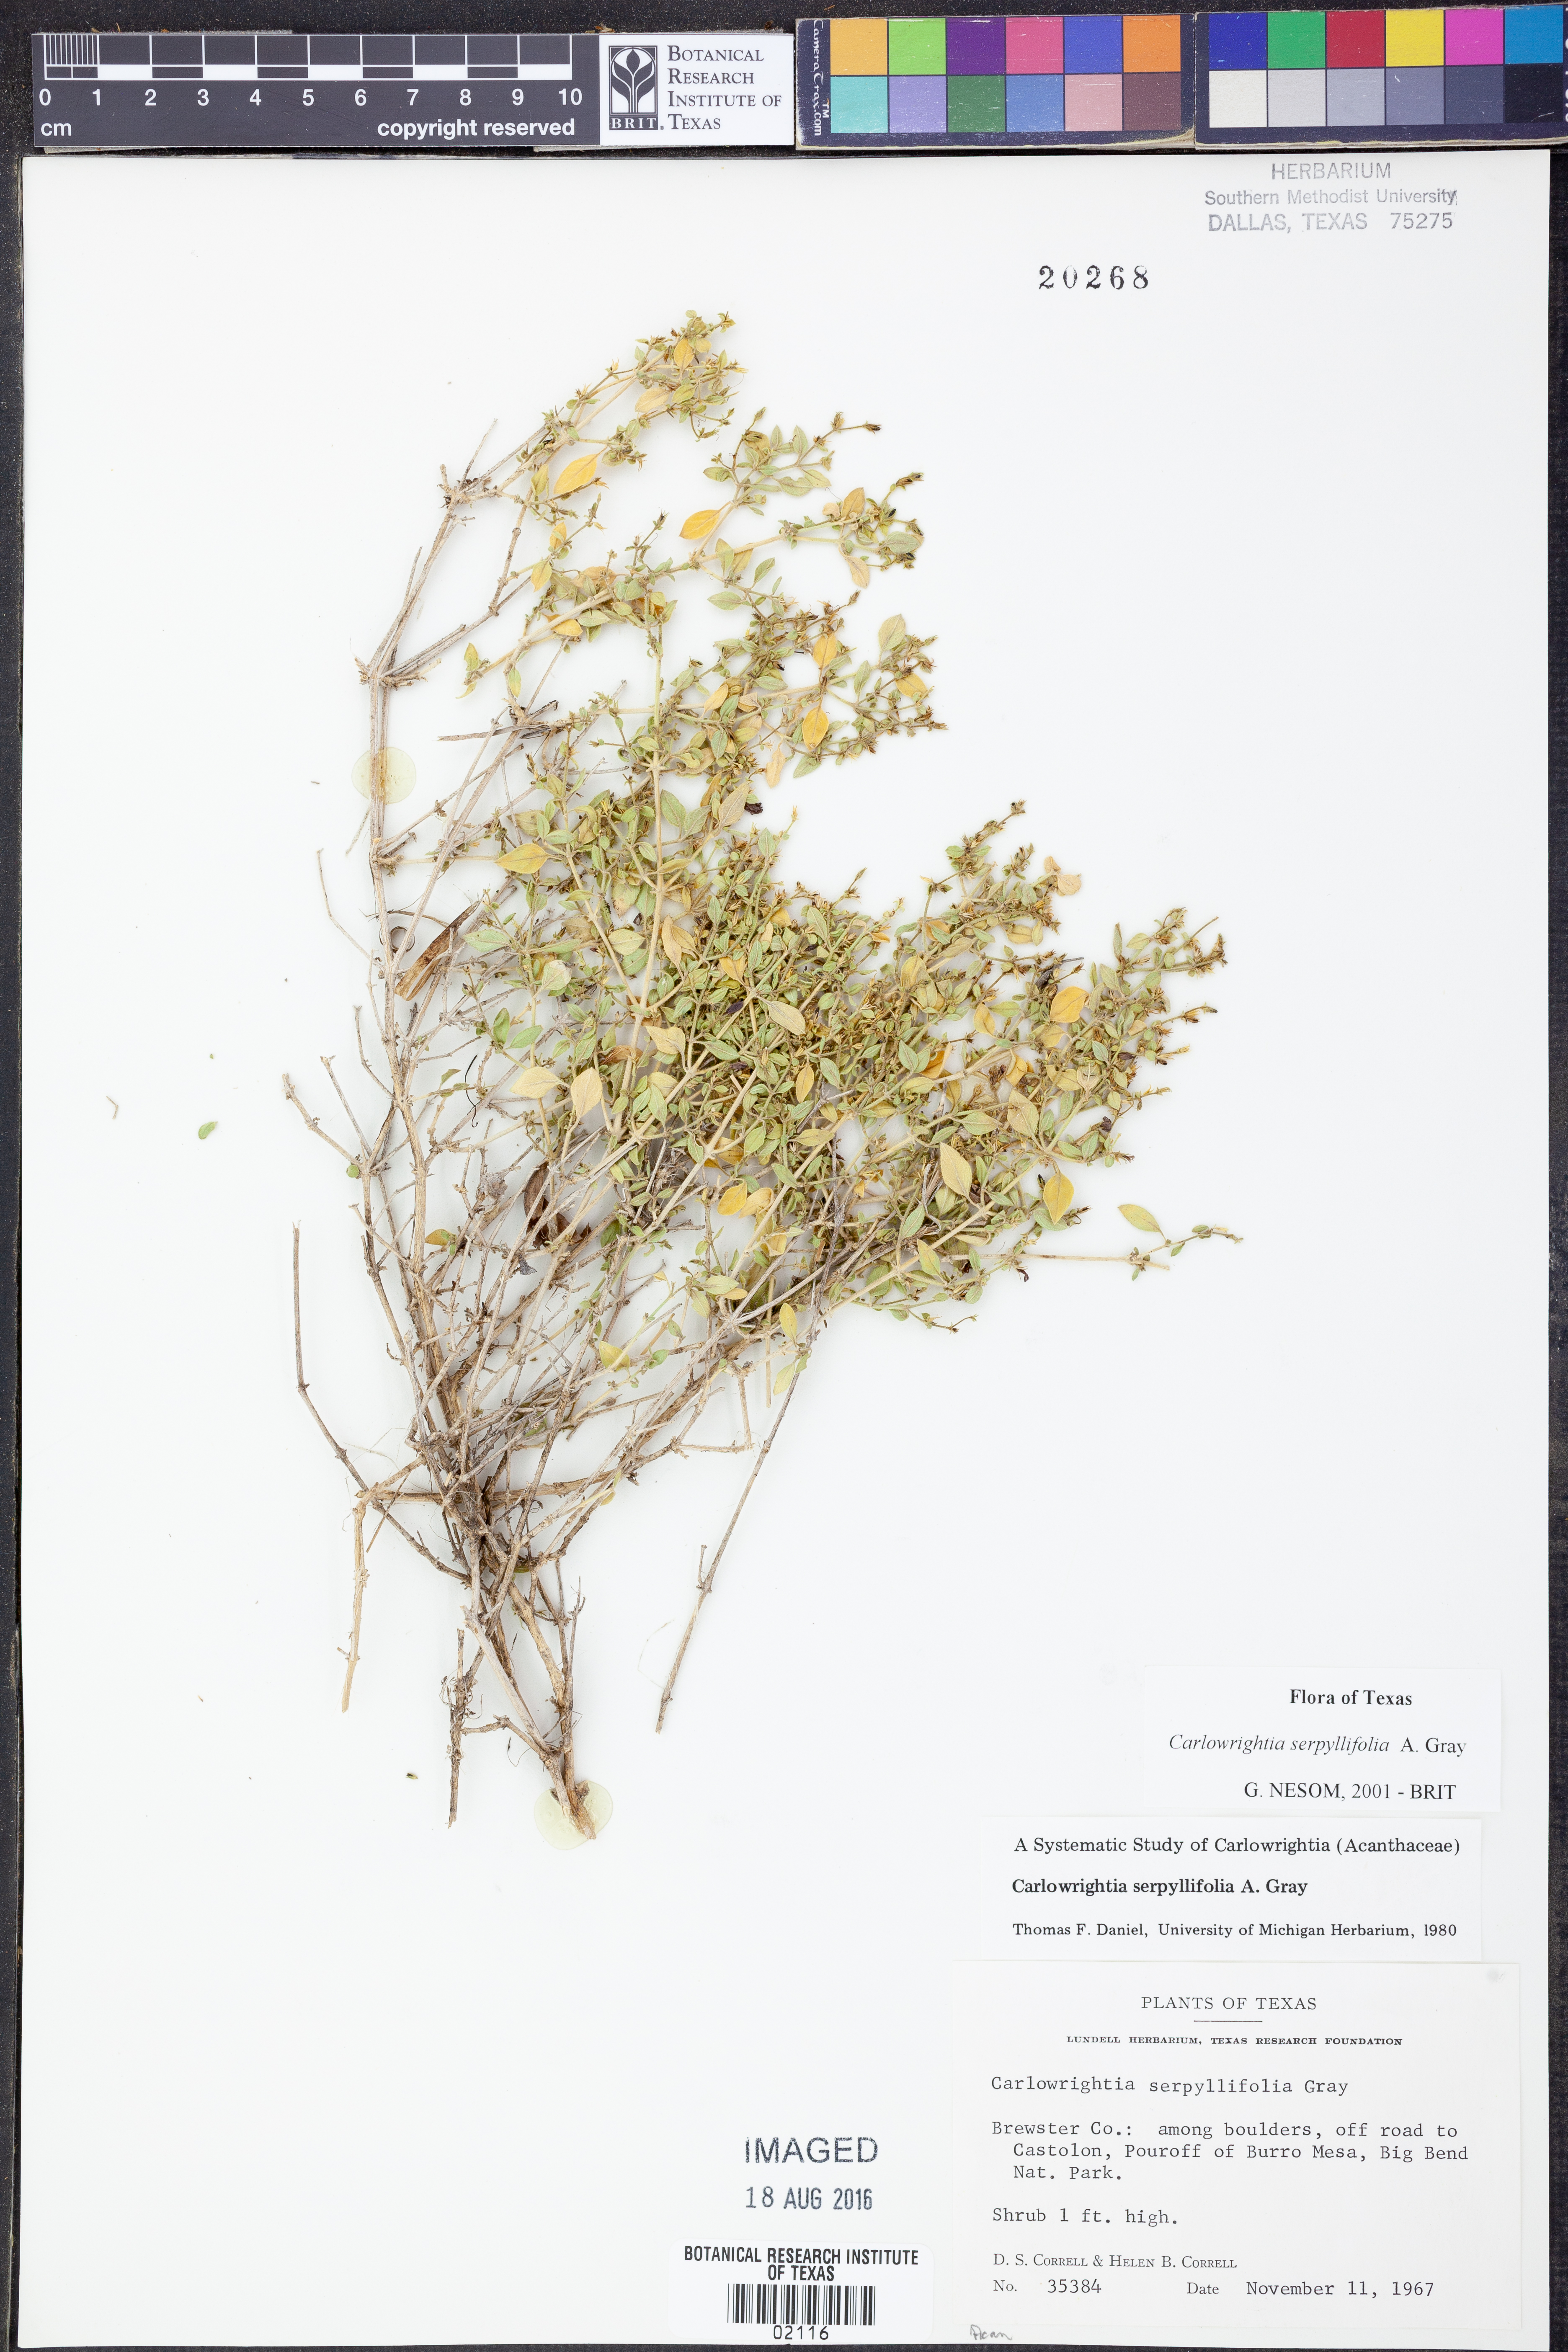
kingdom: Plantae
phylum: Tracheophyta
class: Magnoliopsida
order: Lamiales
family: Acanthaceae
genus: Carlowrightia
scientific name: Carlowrightia serpyllifolia
